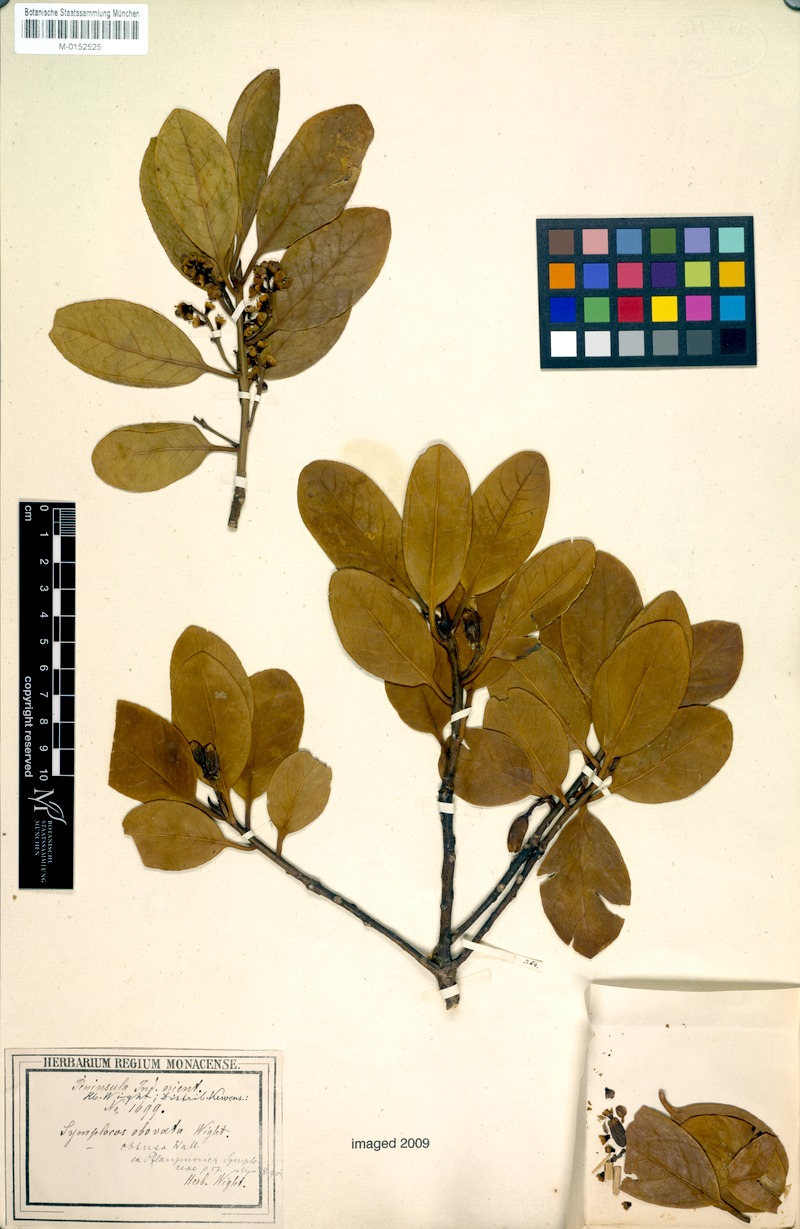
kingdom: Plantae
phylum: Tracheophyta
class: Magnoliopsida
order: Ericales
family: Symplocaceae
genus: Symplocos
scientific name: Symplocos obtusa
